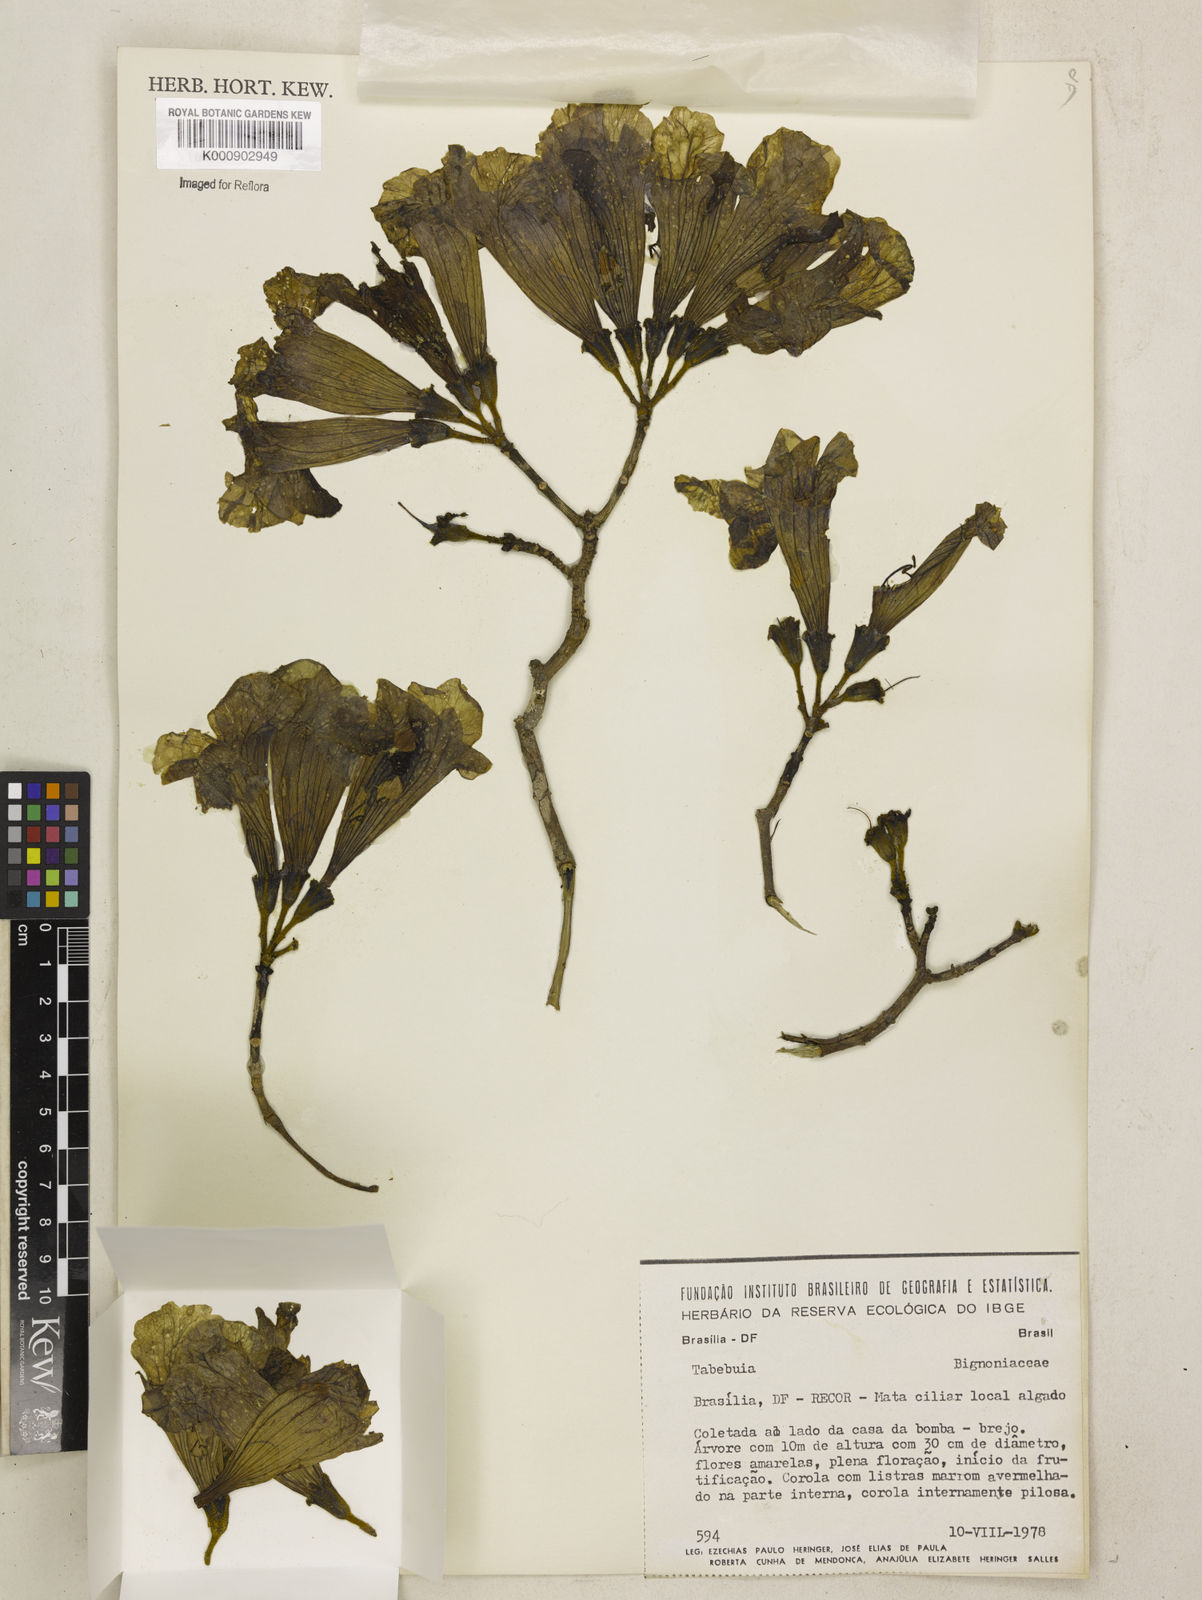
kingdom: Plantae
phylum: Tracheophyta
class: Magnoliopsida
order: Lamiales
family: Bignoniaceae
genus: Tabebuia
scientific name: Tabebuia
